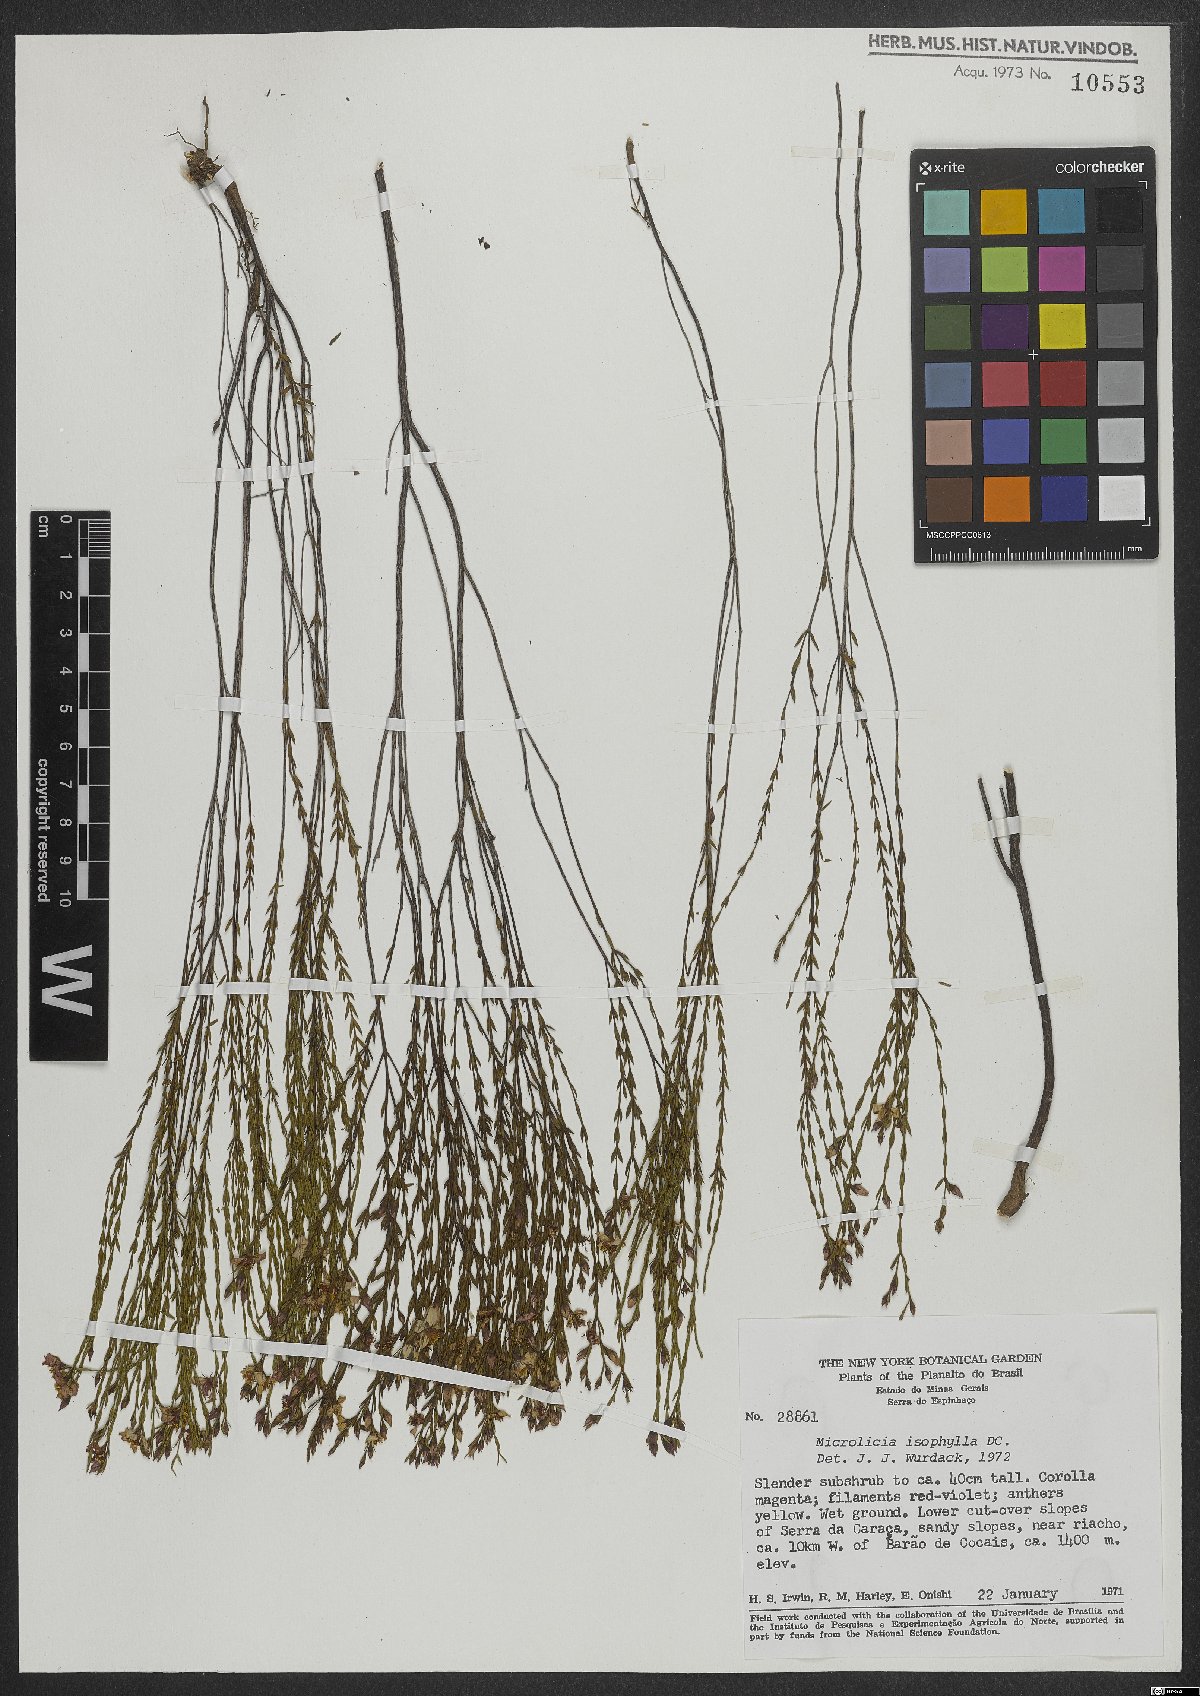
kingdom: Plantae
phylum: Tracheophyta
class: Magnoliopsida
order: Myrtales
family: Melastomataceae
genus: Microlicia
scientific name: Microlicia isophylla
